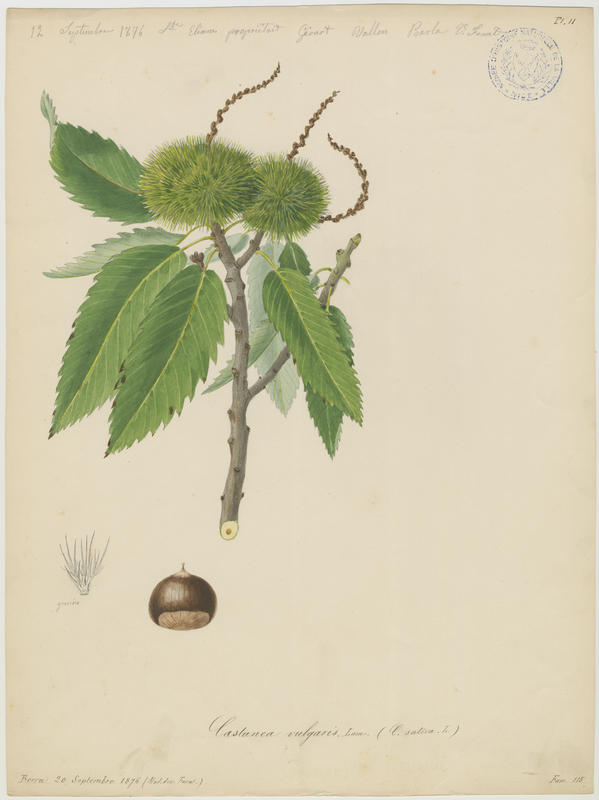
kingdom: Plantae
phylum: Tracheophyta
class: Magnoliopsida
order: Fagales
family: Fagaceae
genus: Castanea
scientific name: Castanea sativa
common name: Sweet chestnut
